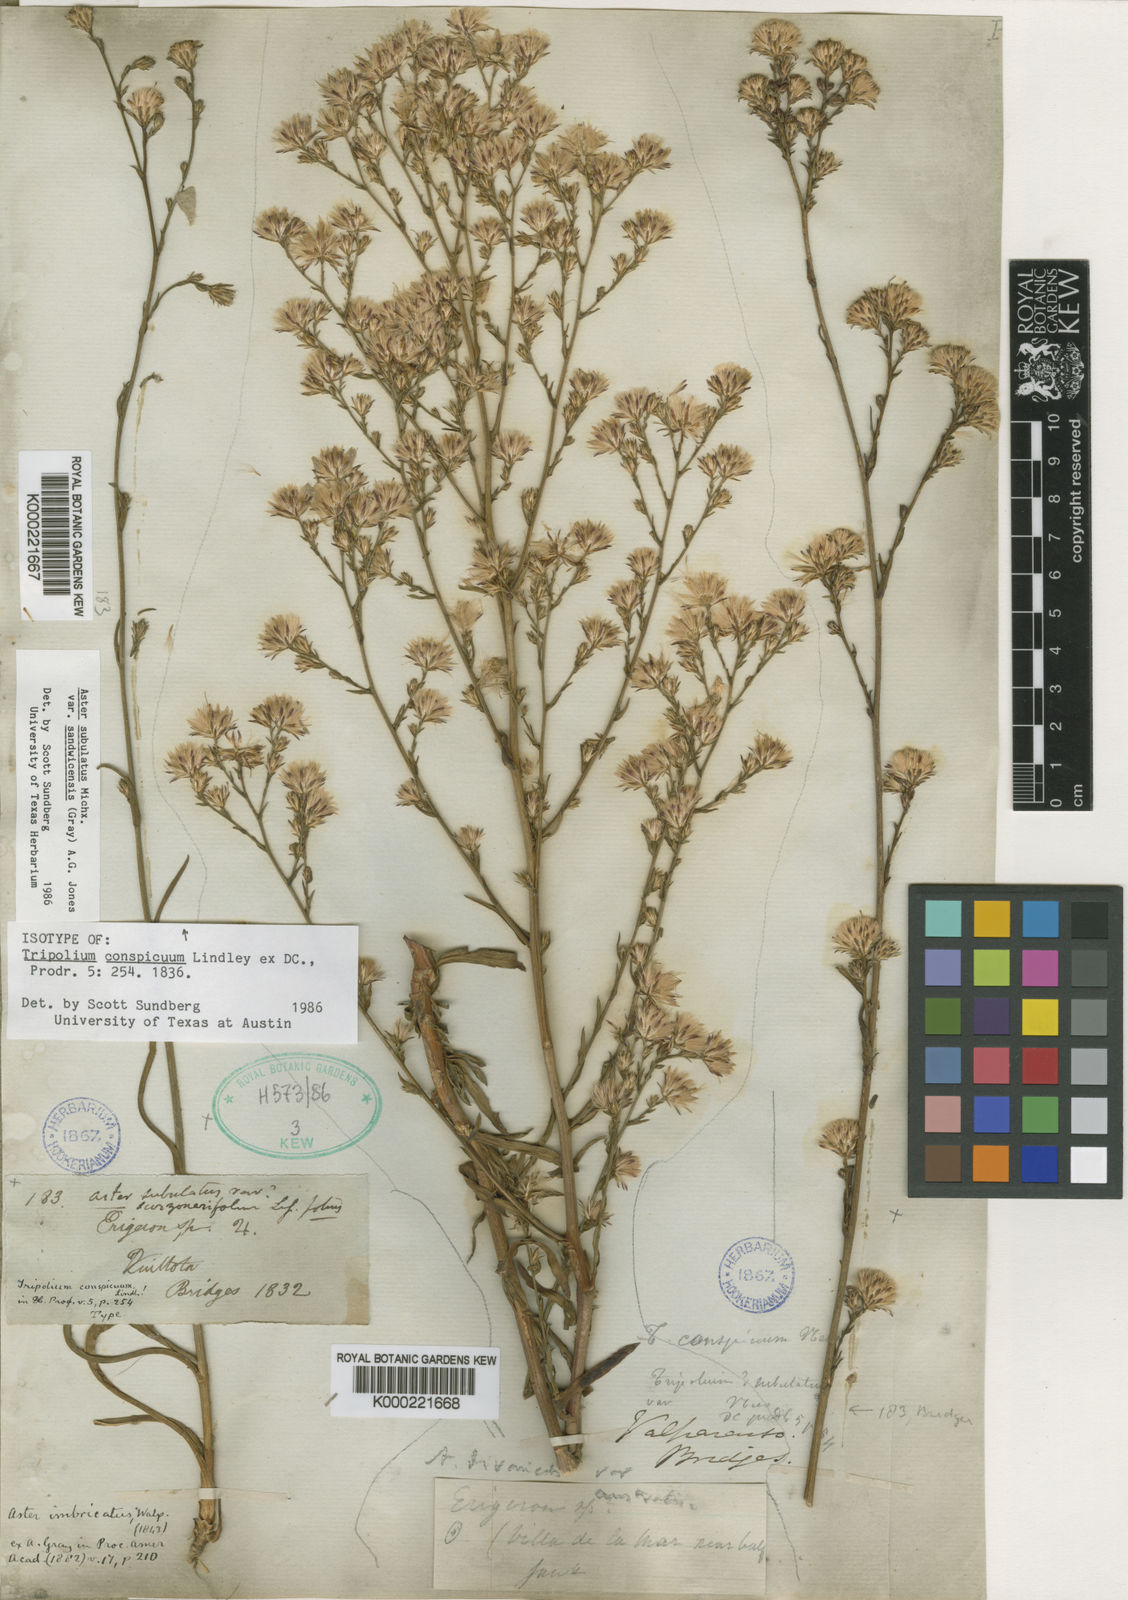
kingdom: Plantae
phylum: Tracheophyta
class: Magnoliopsida
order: Asterales
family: Asteraceae
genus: Symphyotrichum
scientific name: Symphyotrichum subulatum
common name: Annual saltmarsh aster
